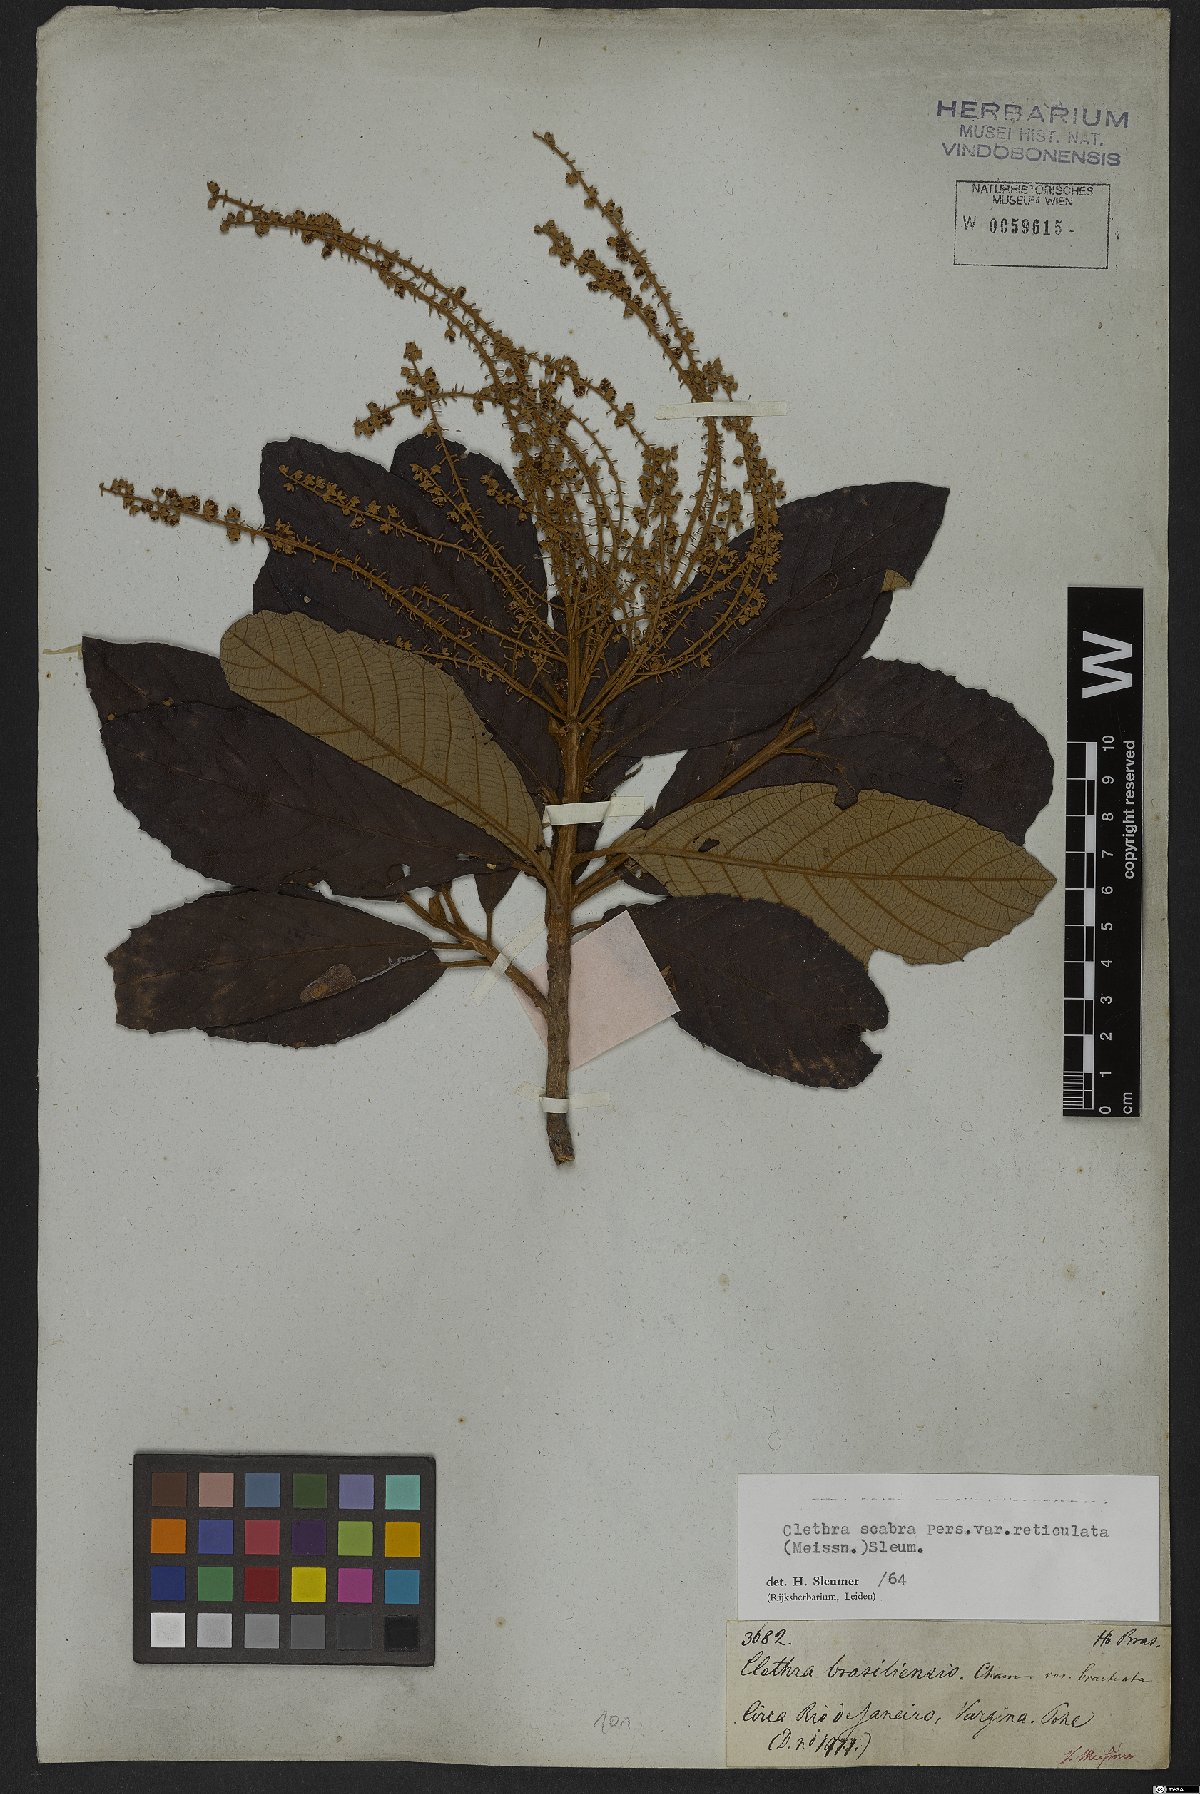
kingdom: Plantae
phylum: Tracheophyta
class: Magnoliopsida
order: Ericales
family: Clethraceae
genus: Clethra
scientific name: Clethra scabra
